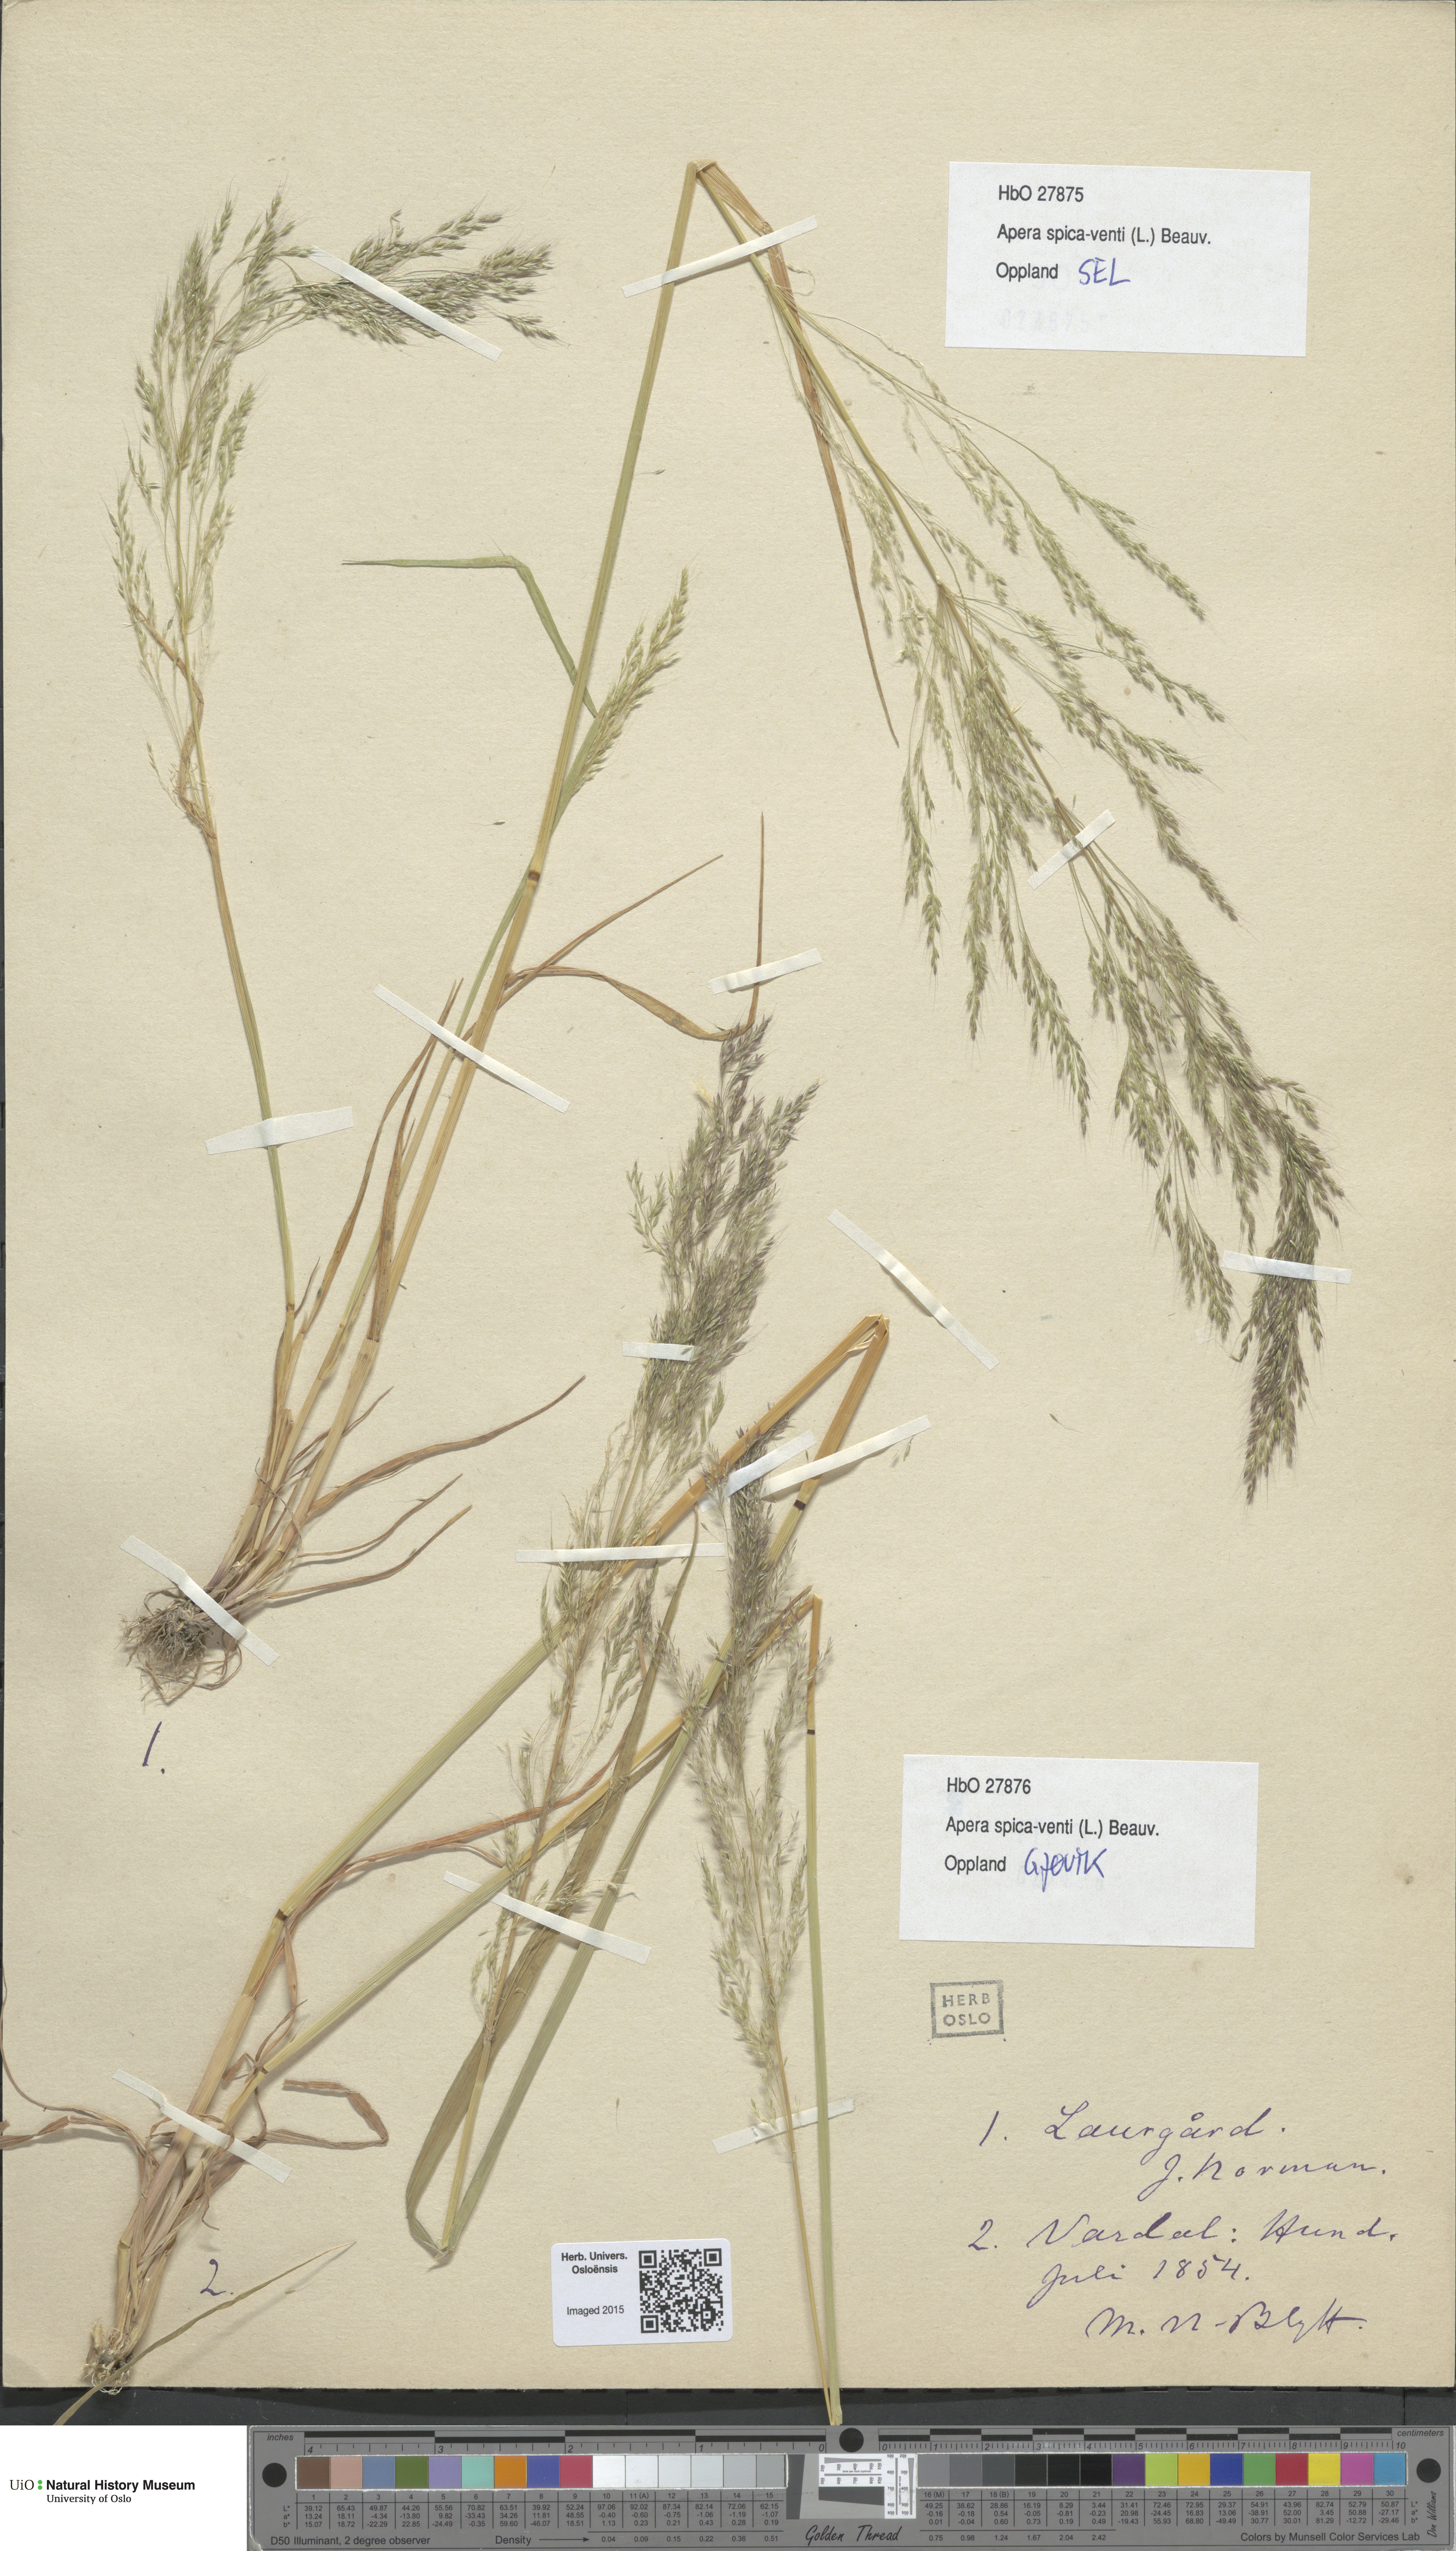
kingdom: Plantae
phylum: Tracheophyta
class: Liliopsida
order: Poales
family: Poaceae
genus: Apera
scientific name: Apera spica-venti
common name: Loose silky-bent
